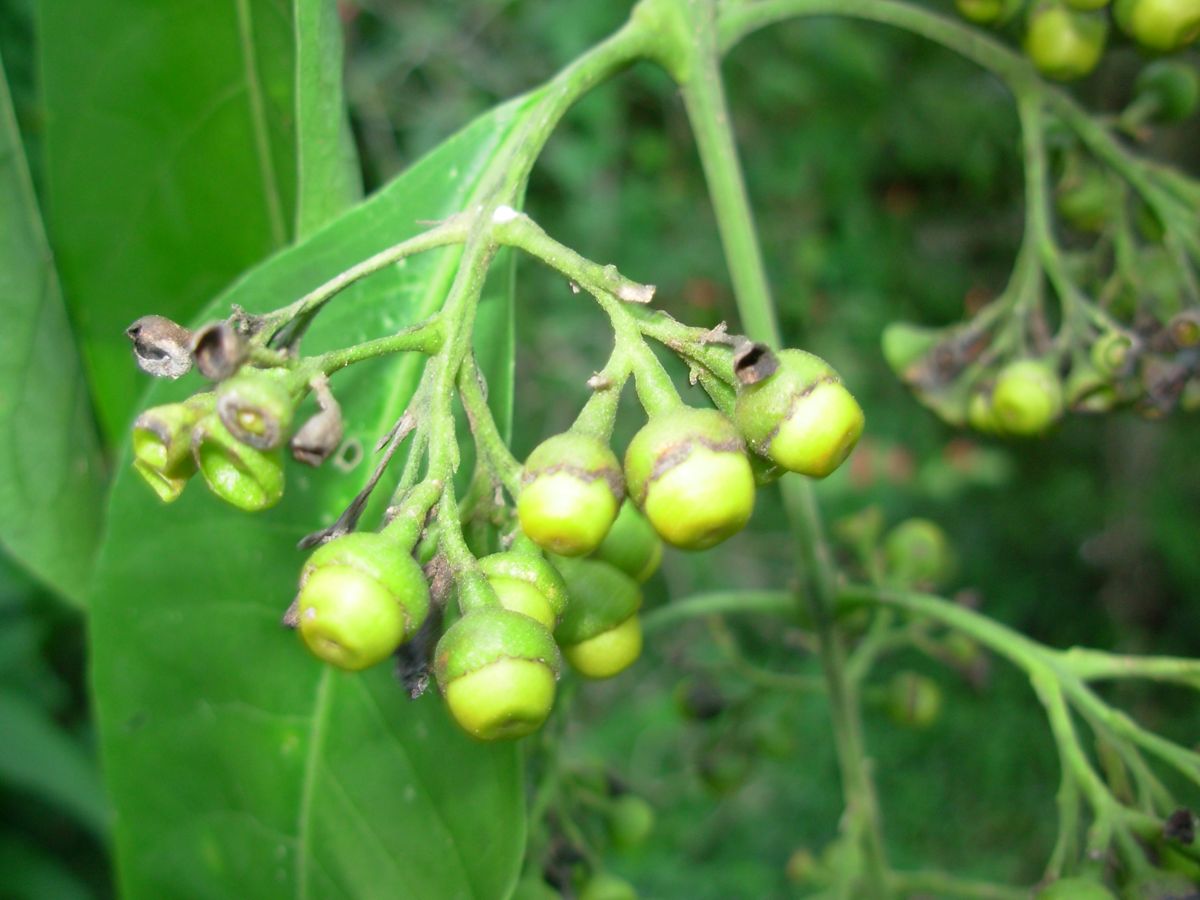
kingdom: Plantae
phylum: Tracheophyta
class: Magnoliopsida
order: Lamiales
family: Lamiaceae
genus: Aegiphila
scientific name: Aegiphila panamensis
